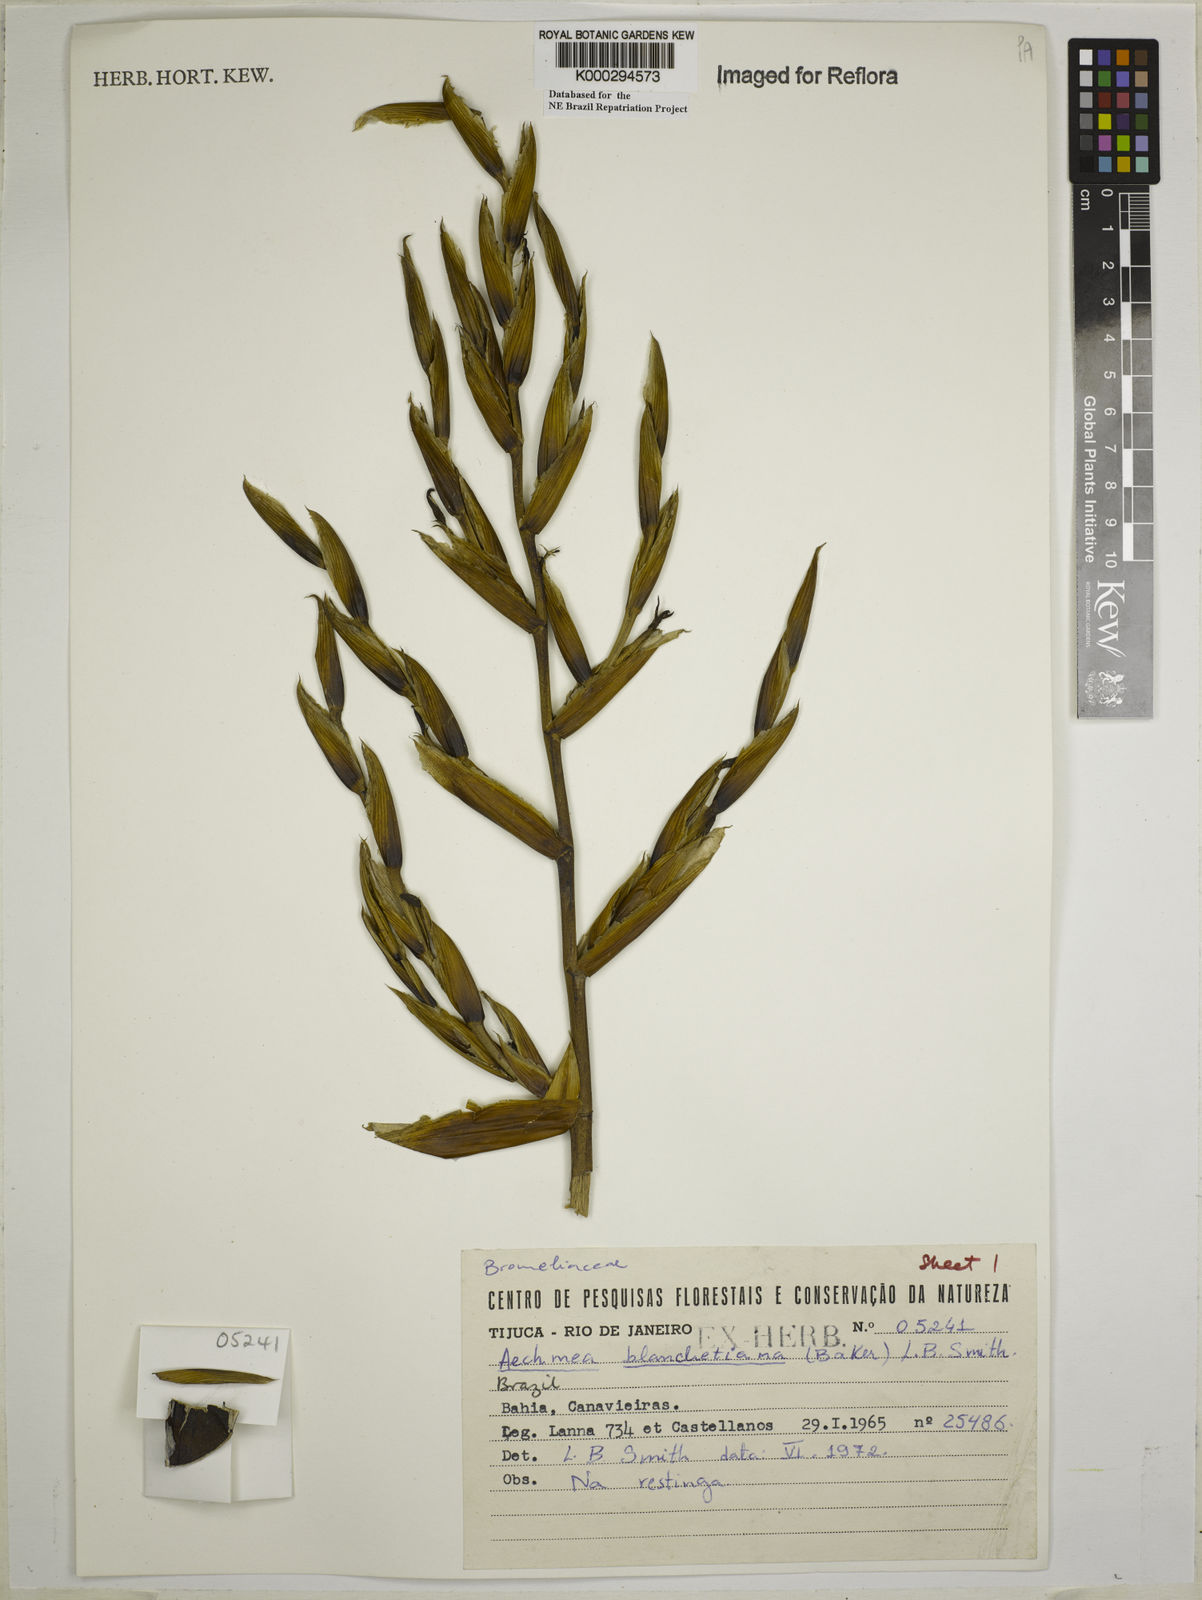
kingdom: Plantae
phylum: Tracheophyta
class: Liliopsida
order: Poales
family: Bromeliaceae
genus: Aechmea
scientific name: Aechmea blanchetiana
